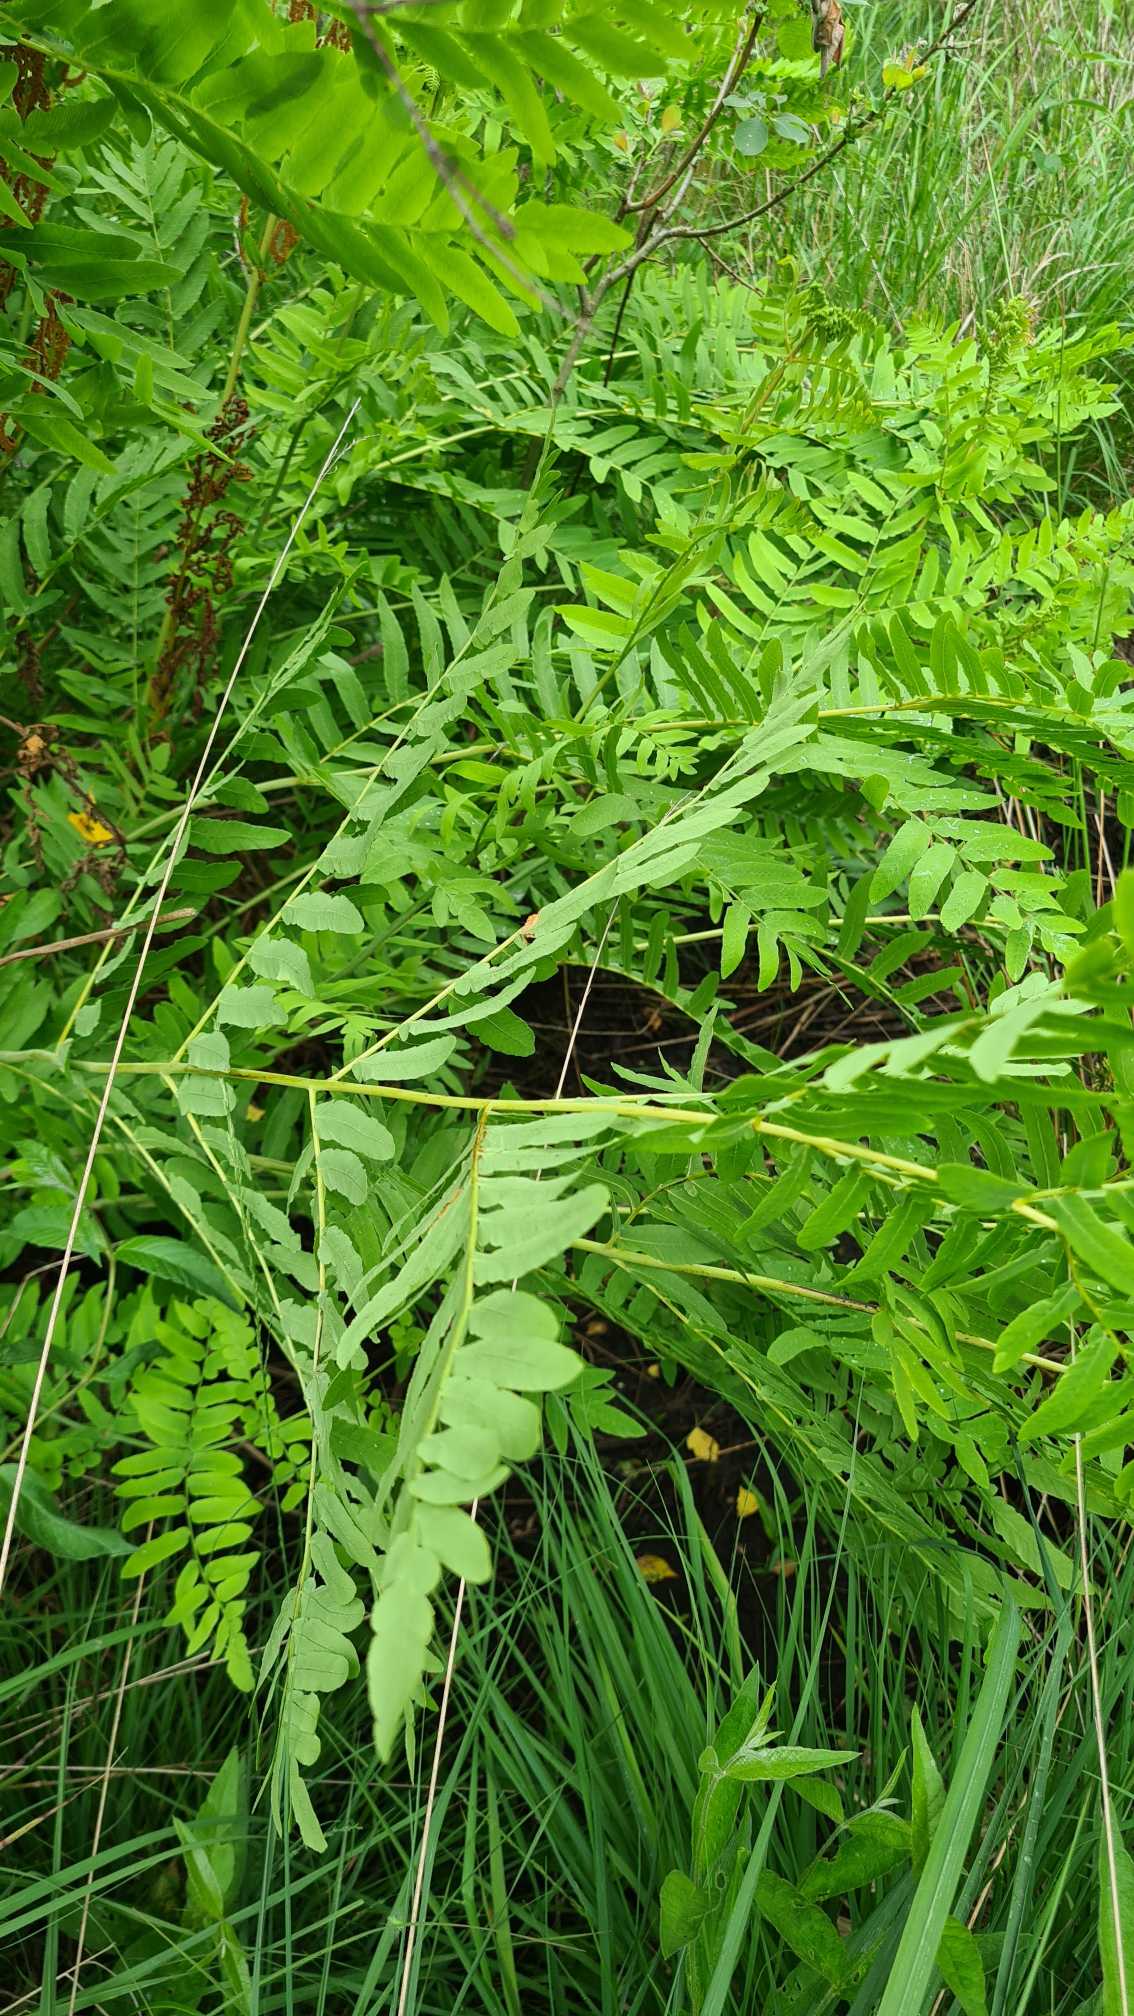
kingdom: Plantae
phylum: Tracheophyta
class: Polypodiopsida
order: Osmundales
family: Osmundaceae
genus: Osmunda
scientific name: Osmunda regalis
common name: Kongebregne
